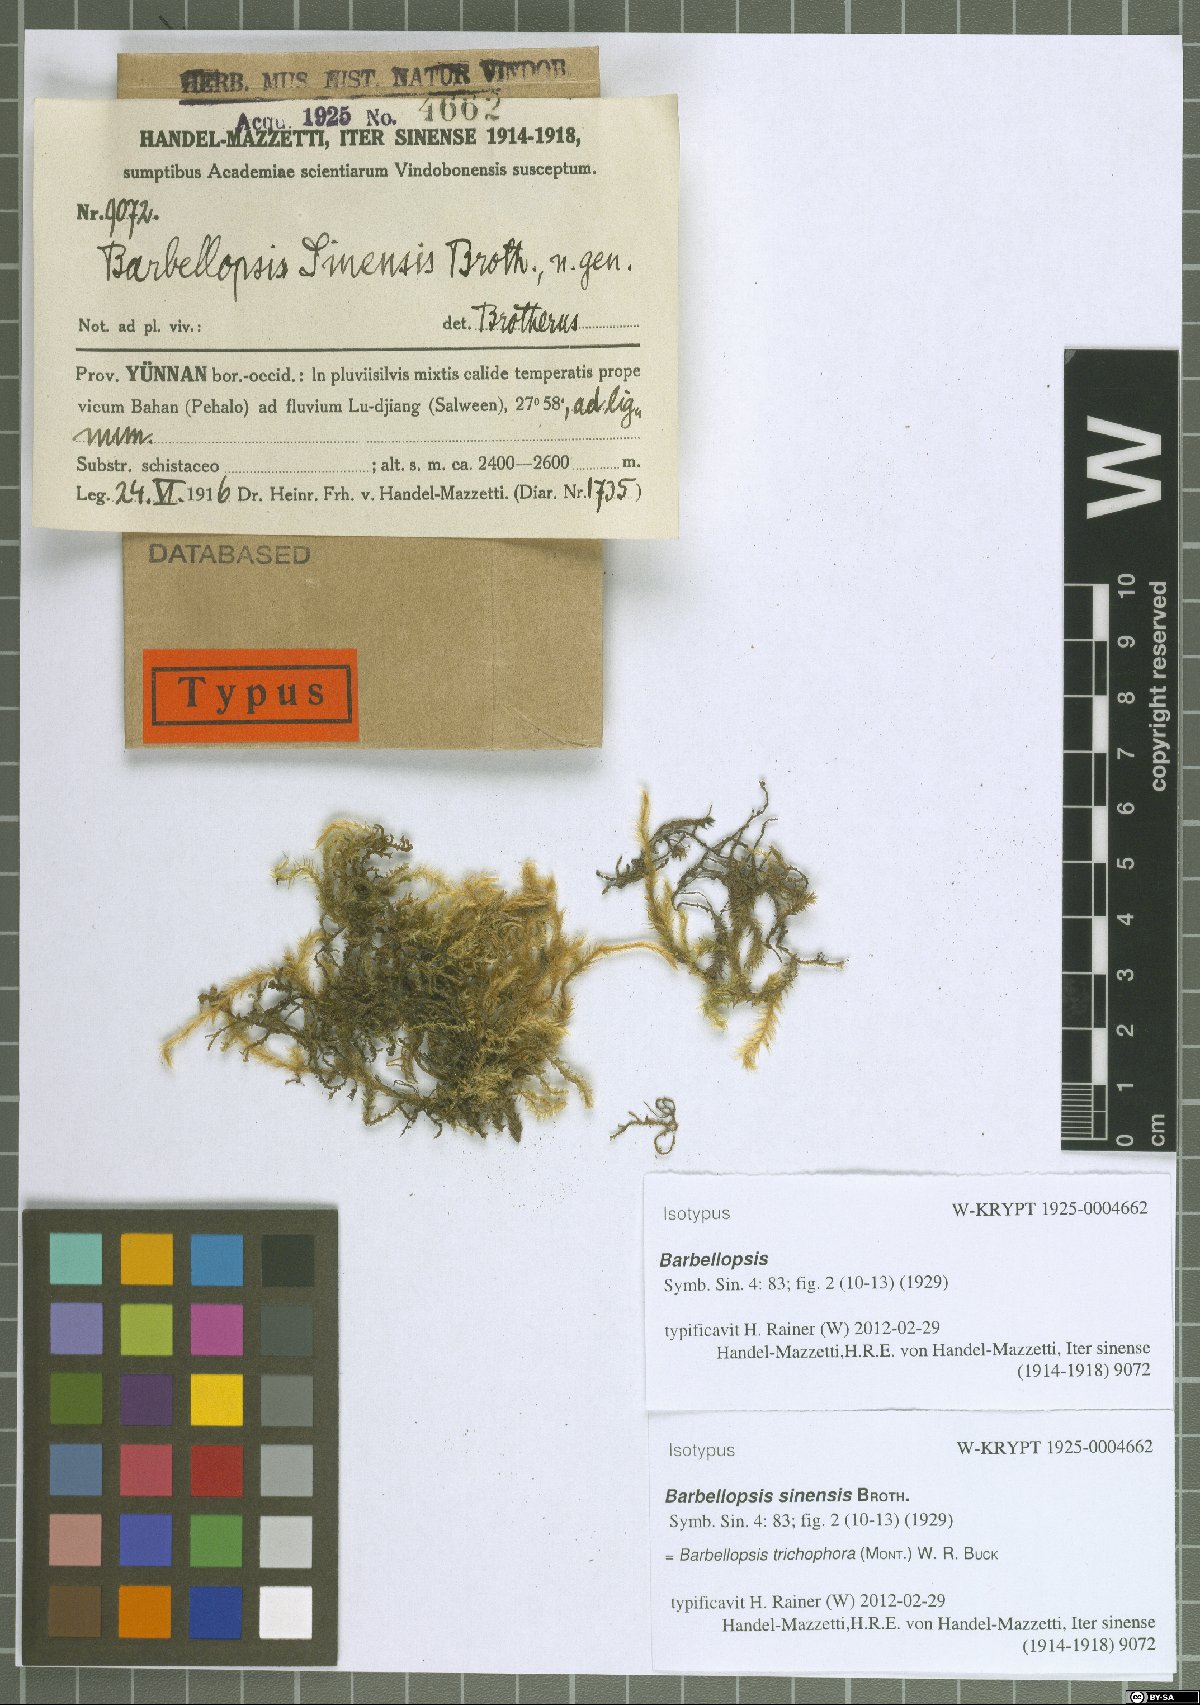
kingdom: Plantae
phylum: Bryophyta
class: Bryopsida
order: Hypnales
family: Meteoriaceae
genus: Barbellopsis
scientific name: Barbellopsis trichophora
